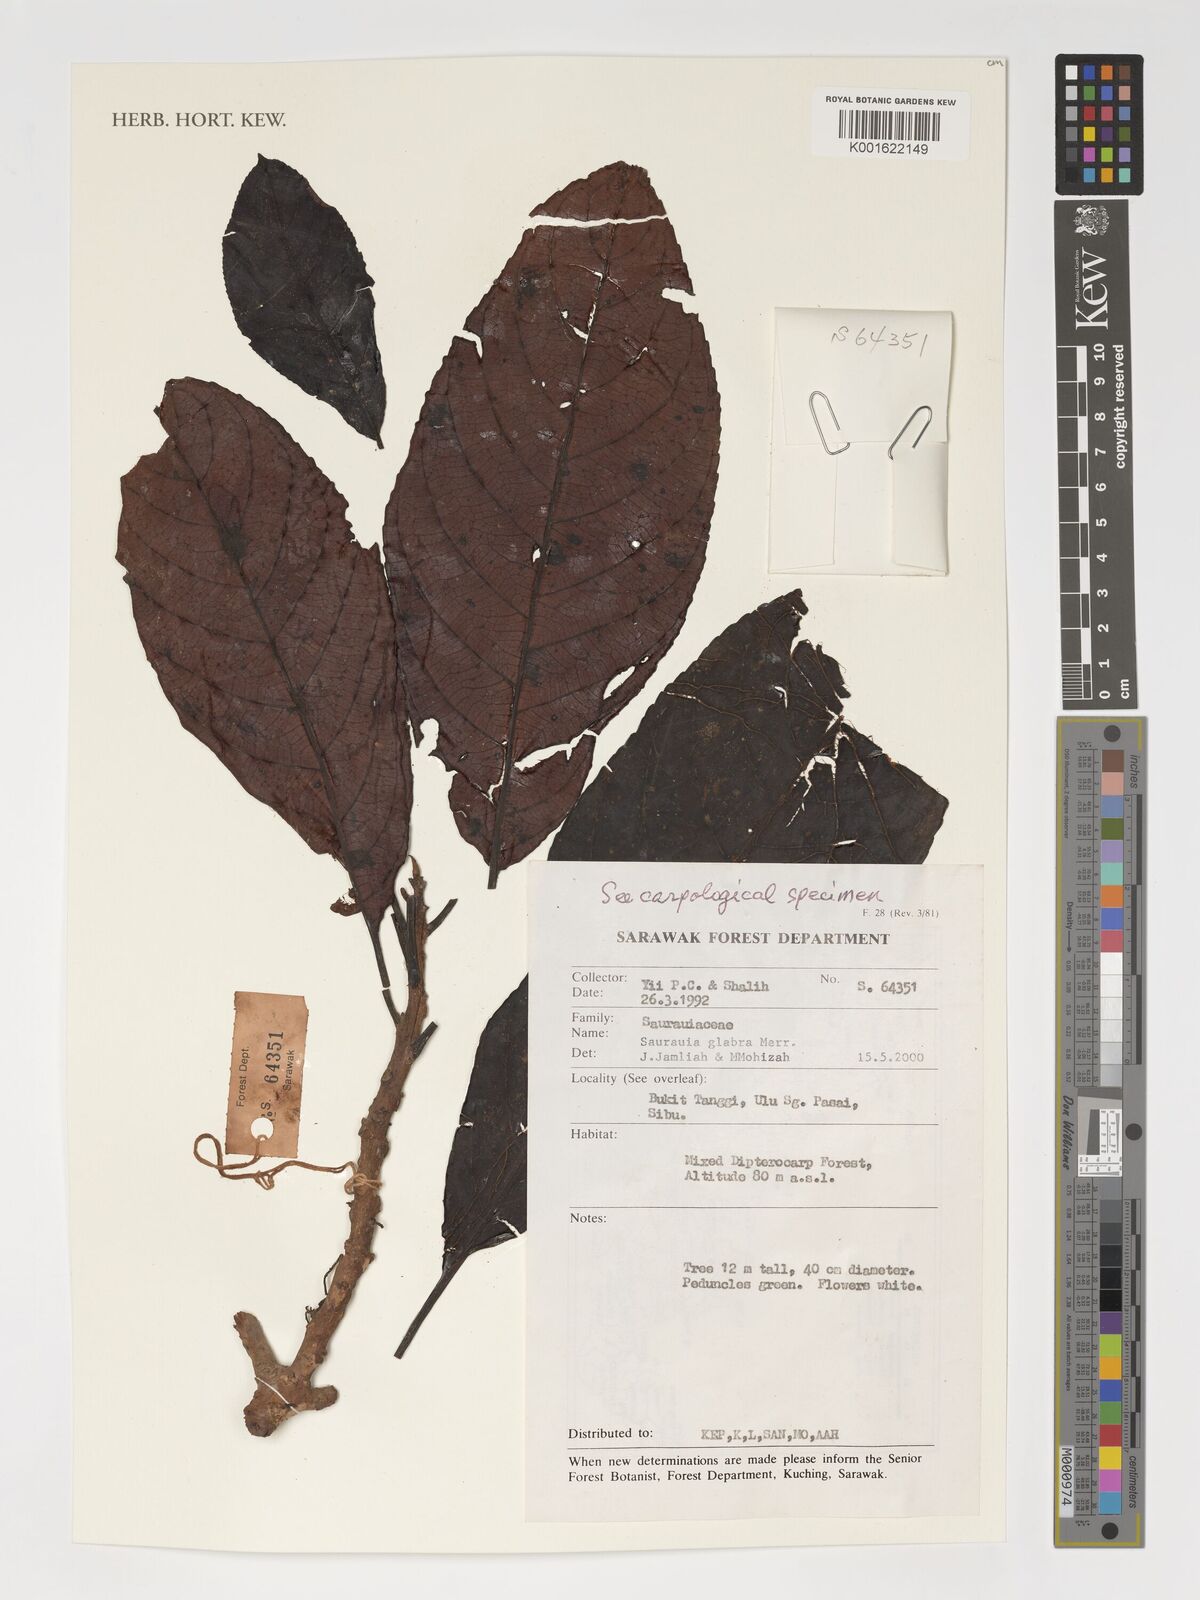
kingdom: Plantae
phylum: Tracheophyta
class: Magnoliopsida
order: Ericales
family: Actinidiaceae
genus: Saurauia
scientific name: Saurauia glabra
